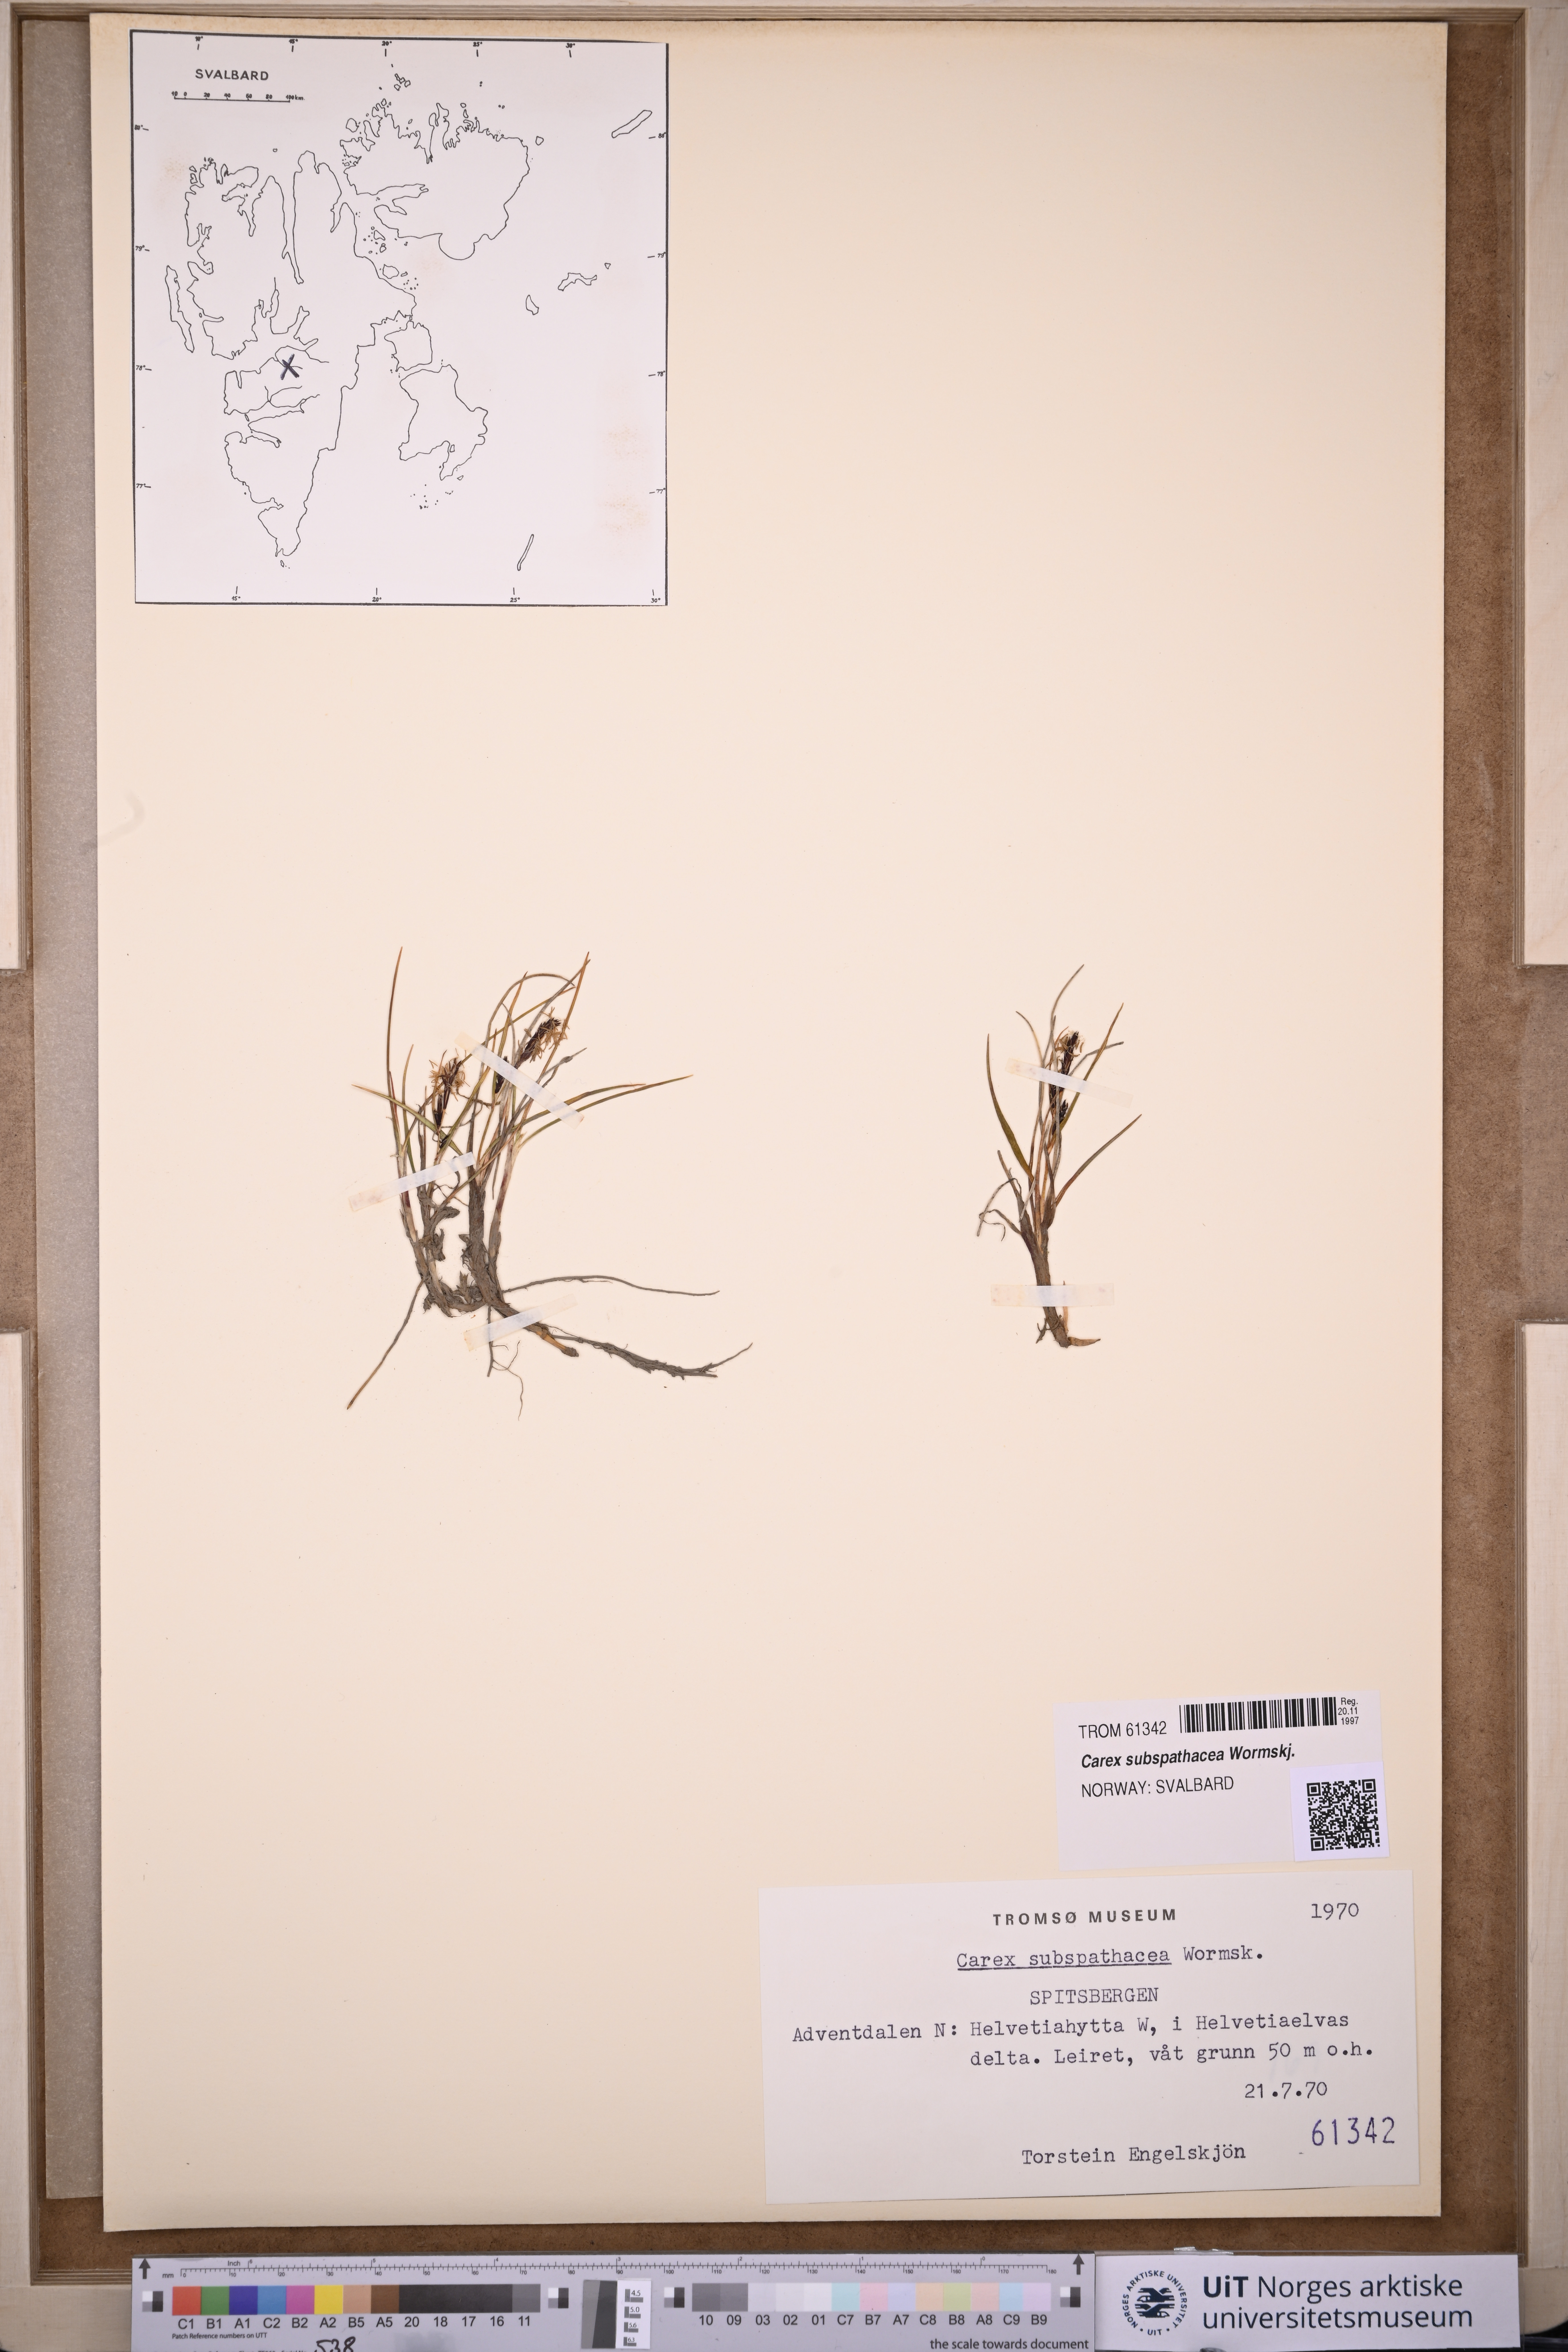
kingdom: Plantae
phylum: Tracheophyta
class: Liliopsida
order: Poales
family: Cyperaceae
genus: Carex
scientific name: Carex subspathacea
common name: Hoppner's sedge
